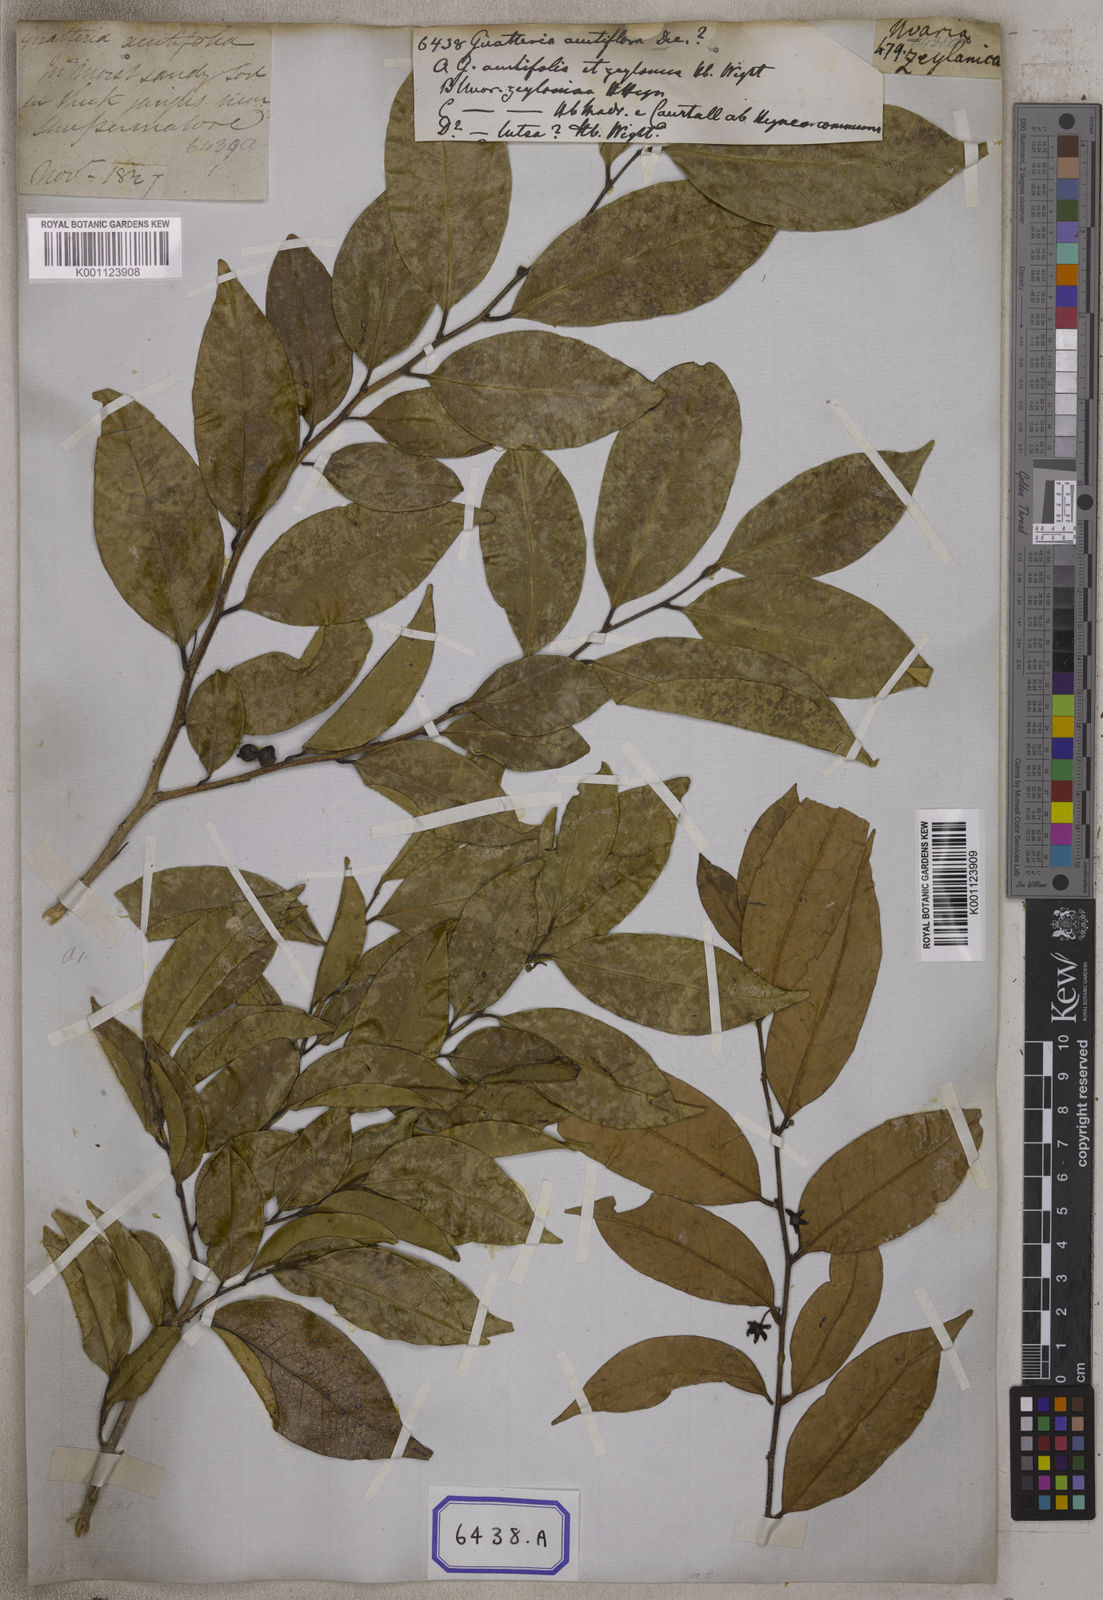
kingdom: Plantae
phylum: Tracheophyta
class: Magnoliopsida
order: Magnoliales
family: Annonaceae
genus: Guatteria
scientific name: Guatteria
